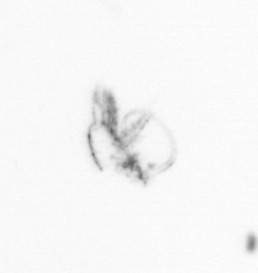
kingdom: Chromista
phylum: Ochrophyta
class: Bacillariophyceae
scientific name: Bacillariophyceae
